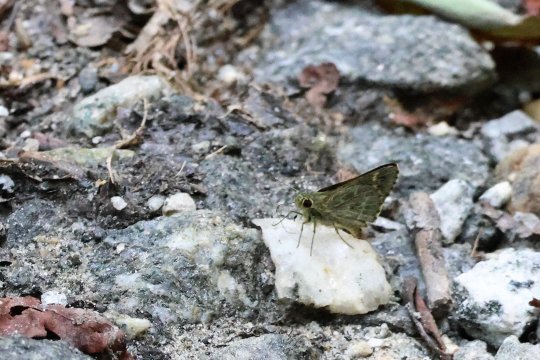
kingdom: Animalia
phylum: Arthropoda
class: Insecta
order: Lepidoptera
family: Hesperiidae
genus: Mastor
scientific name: Mastor hegon
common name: Pepper and Salt Skipper
